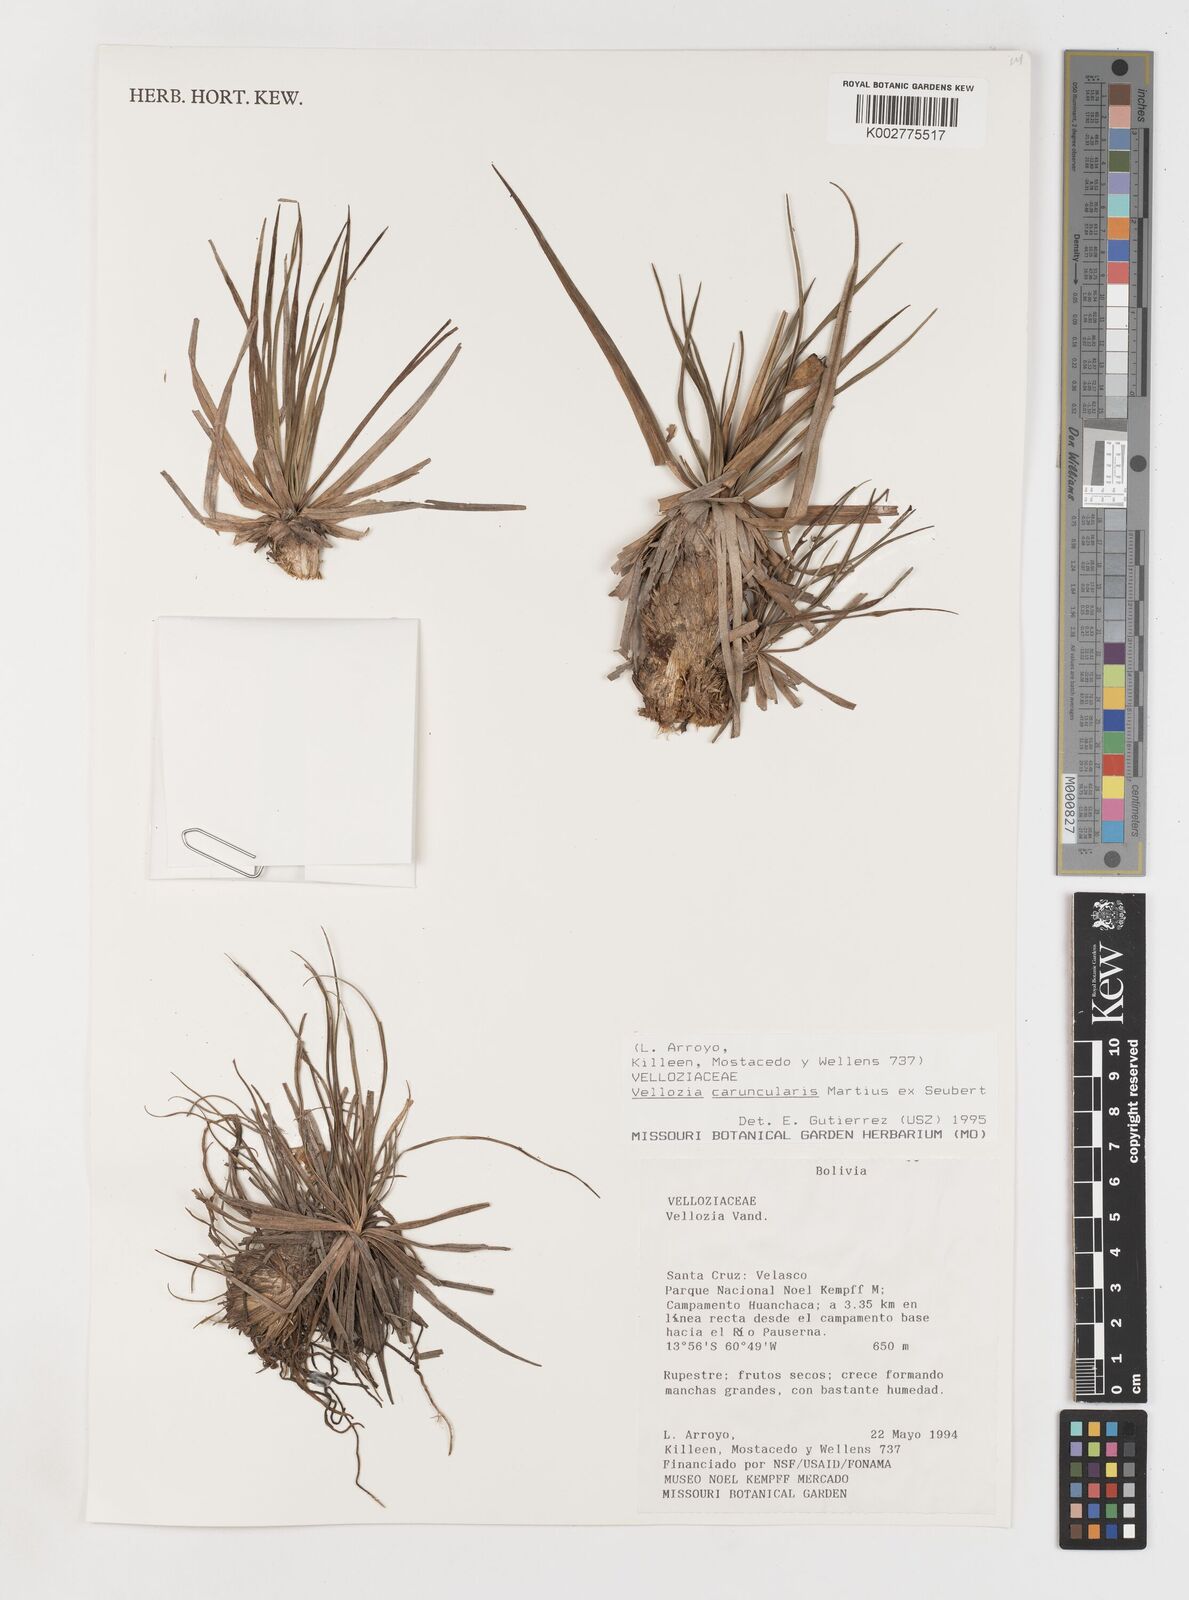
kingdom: Plantae
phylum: Tracheophyta
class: Liliopsida
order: Pandanales
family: Velloziaceae
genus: Vellozia
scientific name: Vellozia caruncularis
